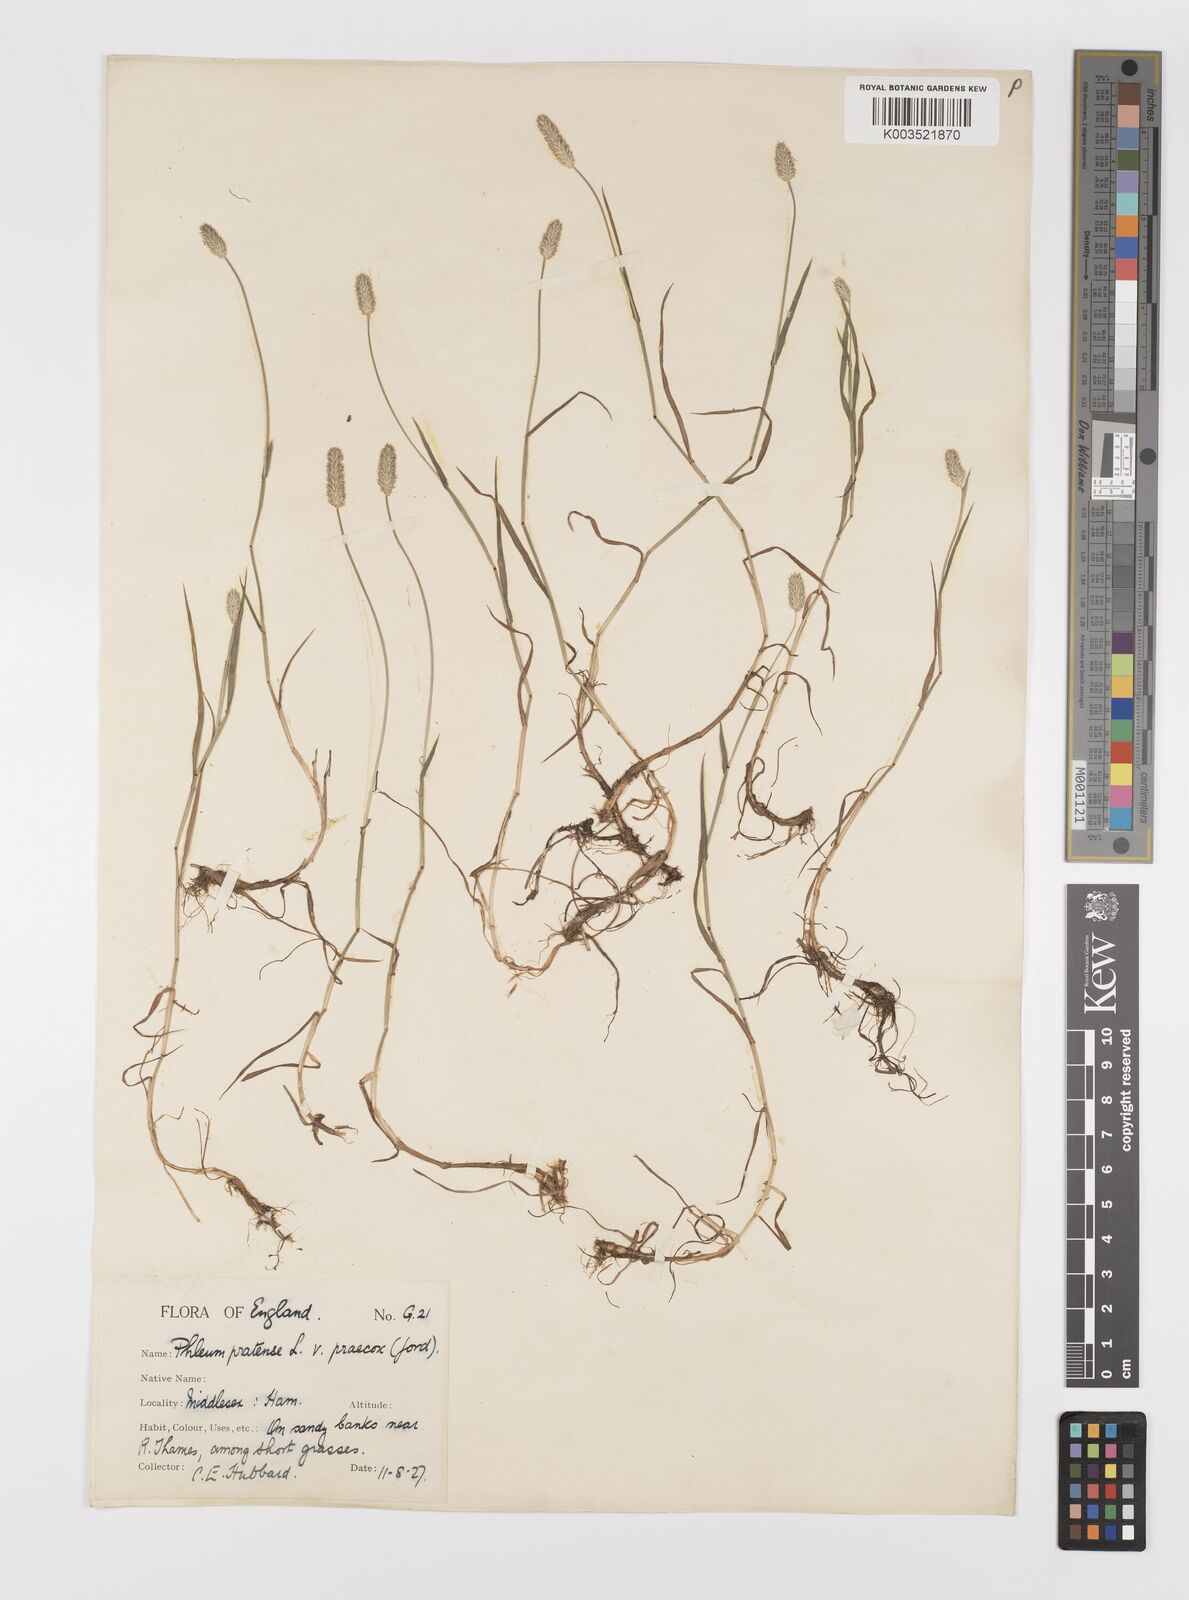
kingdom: Plantae
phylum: Tracheophyta
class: Liliopsida
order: Poales
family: Poaceae
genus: Phleum
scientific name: Phleum bertolonii
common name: Smaller cat's-tail
